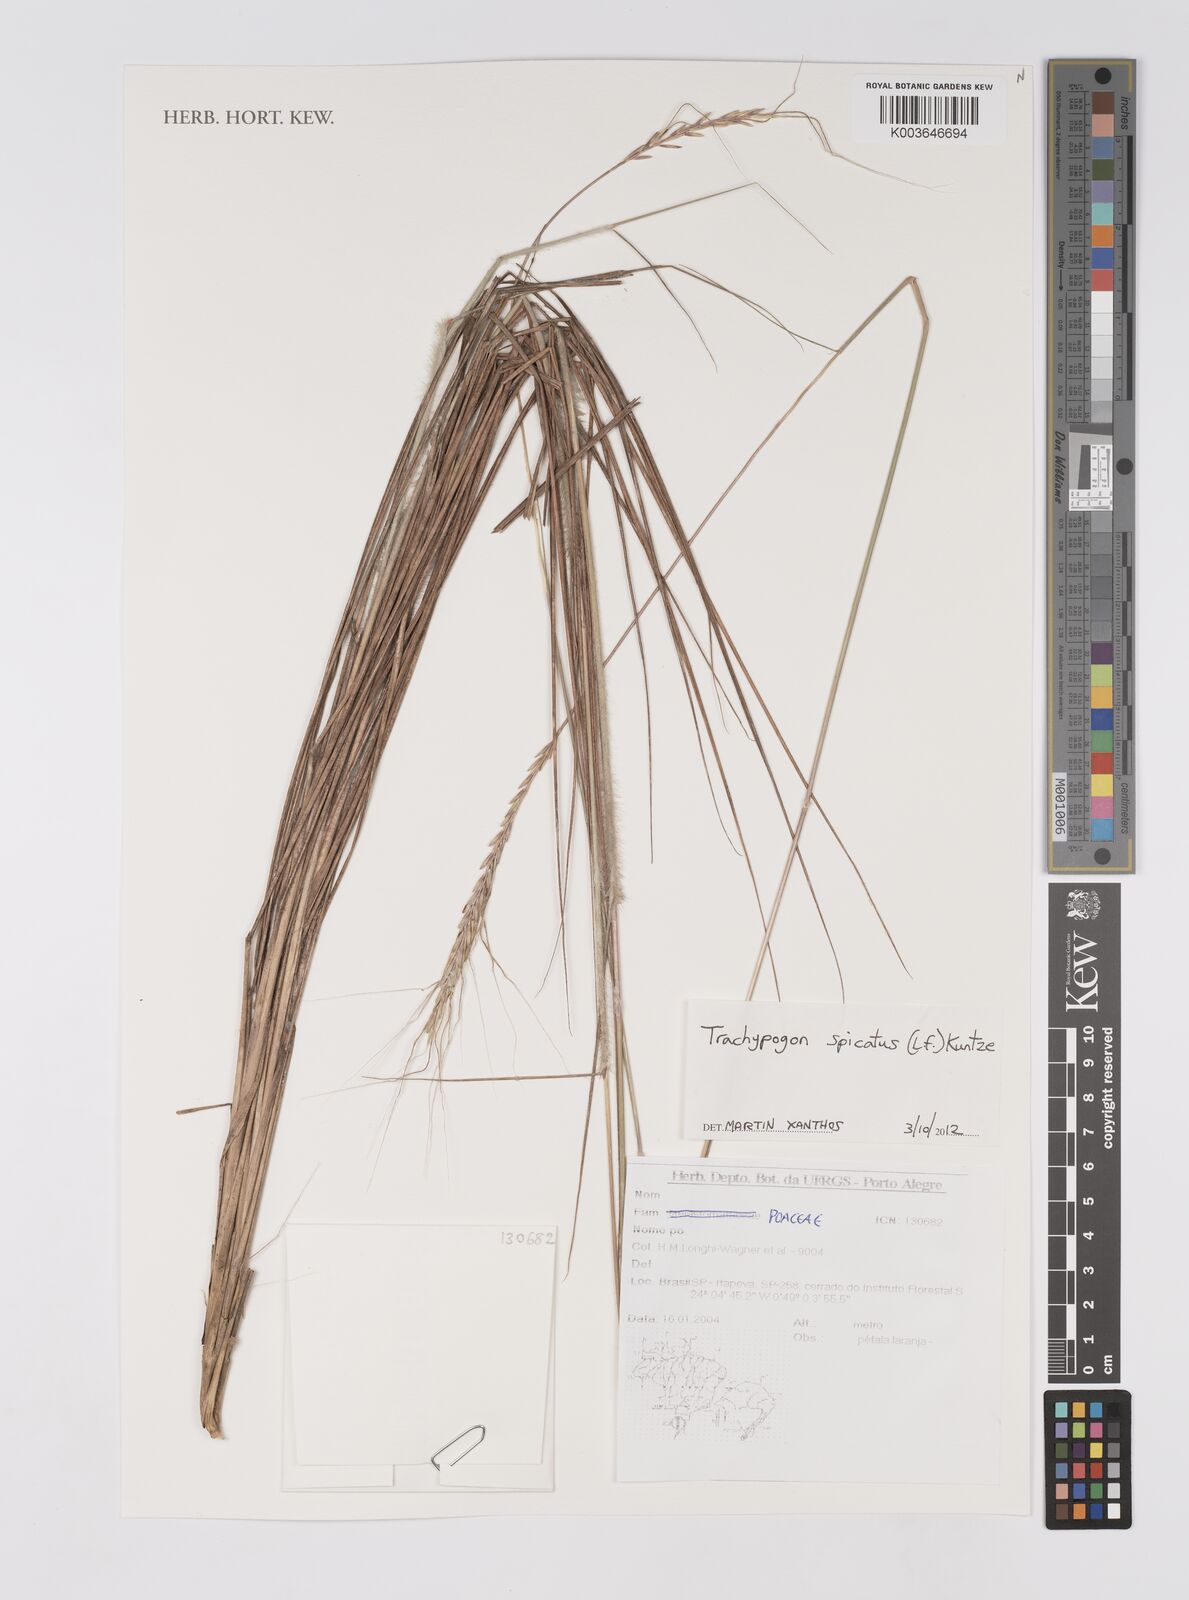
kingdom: Plantae
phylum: Tracheophyta
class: Liliopsida
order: Poales
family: Poaceae
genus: Trachypogon
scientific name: Trachypogon spicatus
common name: Crinkle-awn
